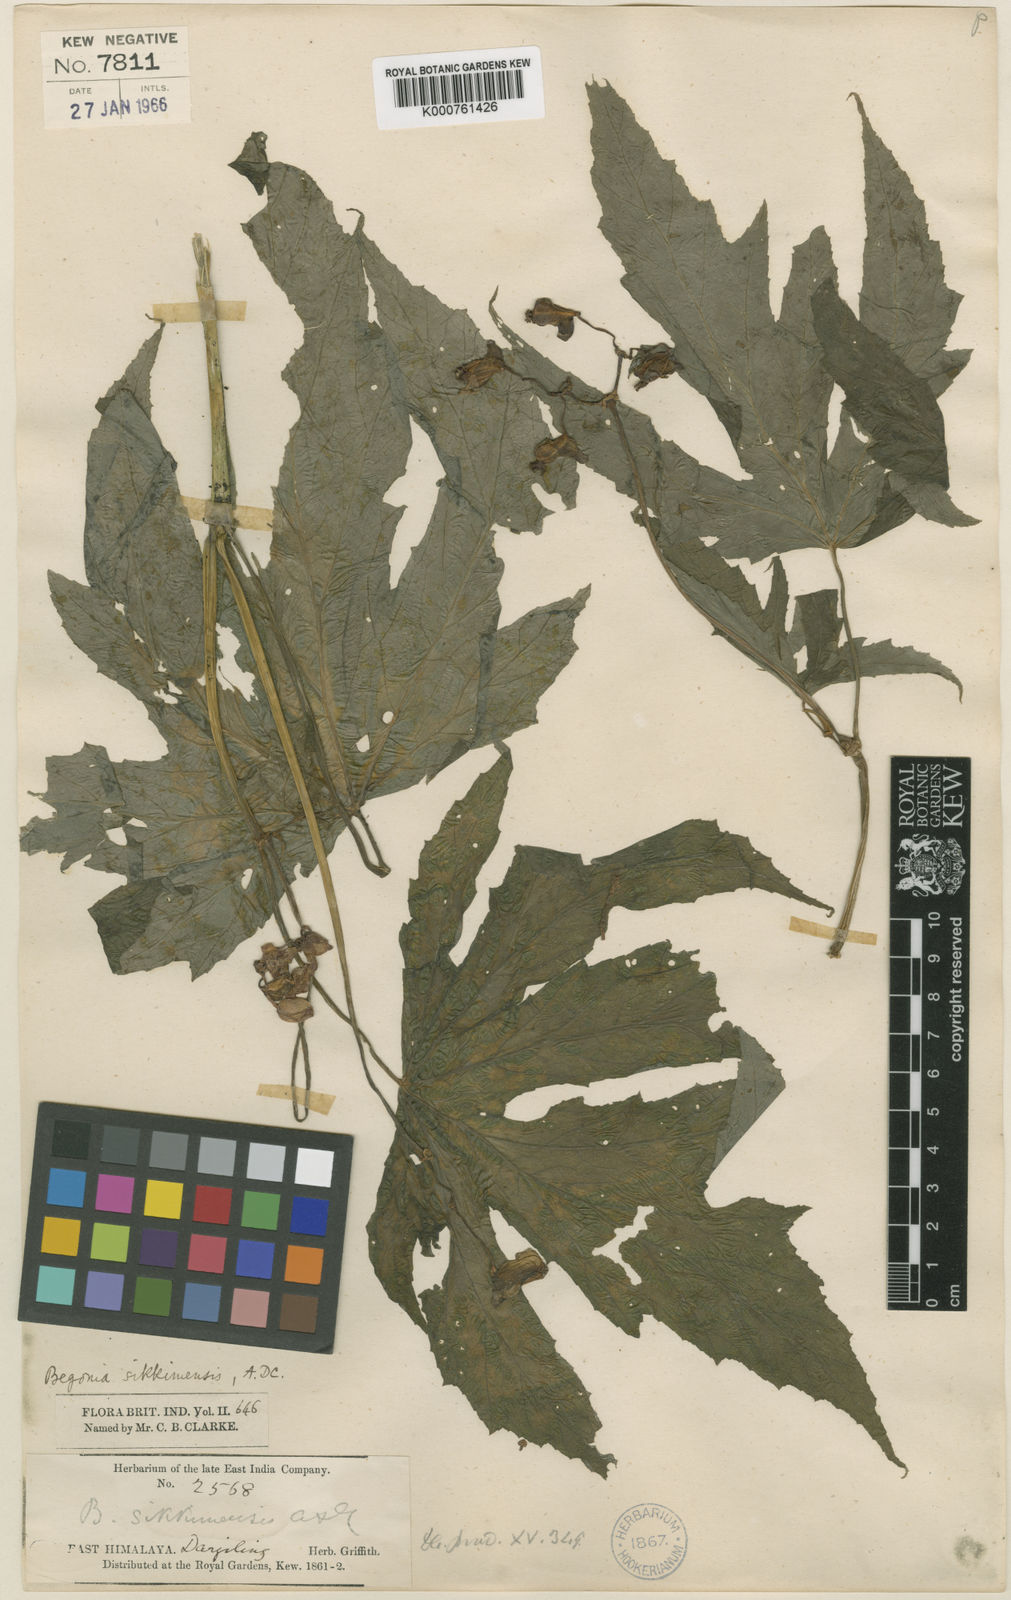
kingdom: Plantae
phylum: Tracheophyta
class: Magnoliopsida
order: Cucurbitales
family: Begoniaceae
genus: Begonia
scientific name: Begonia sikkimensis
